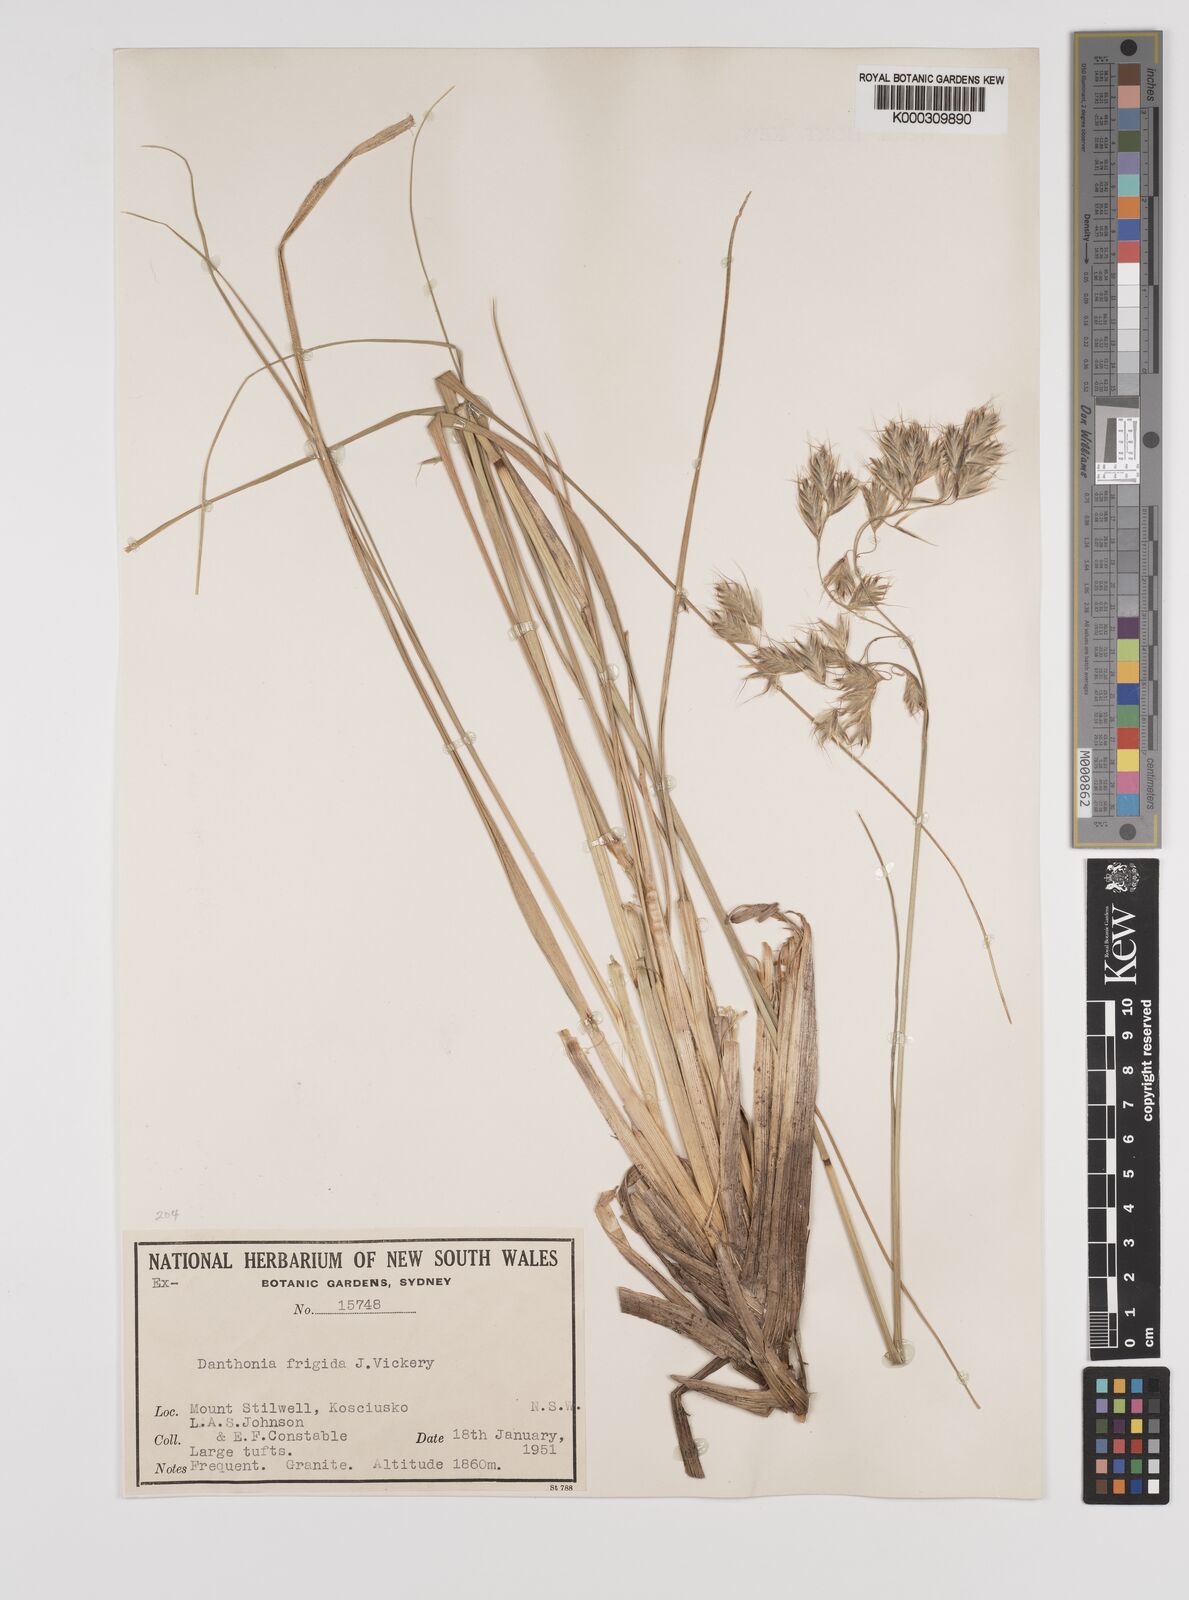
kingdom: Plantae
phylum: Tracheophyta
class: Liliopsida
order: Poales
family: Poaceae
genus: Chionochloa
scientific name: Chionochloa frigida
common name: Robust wallaby grass
